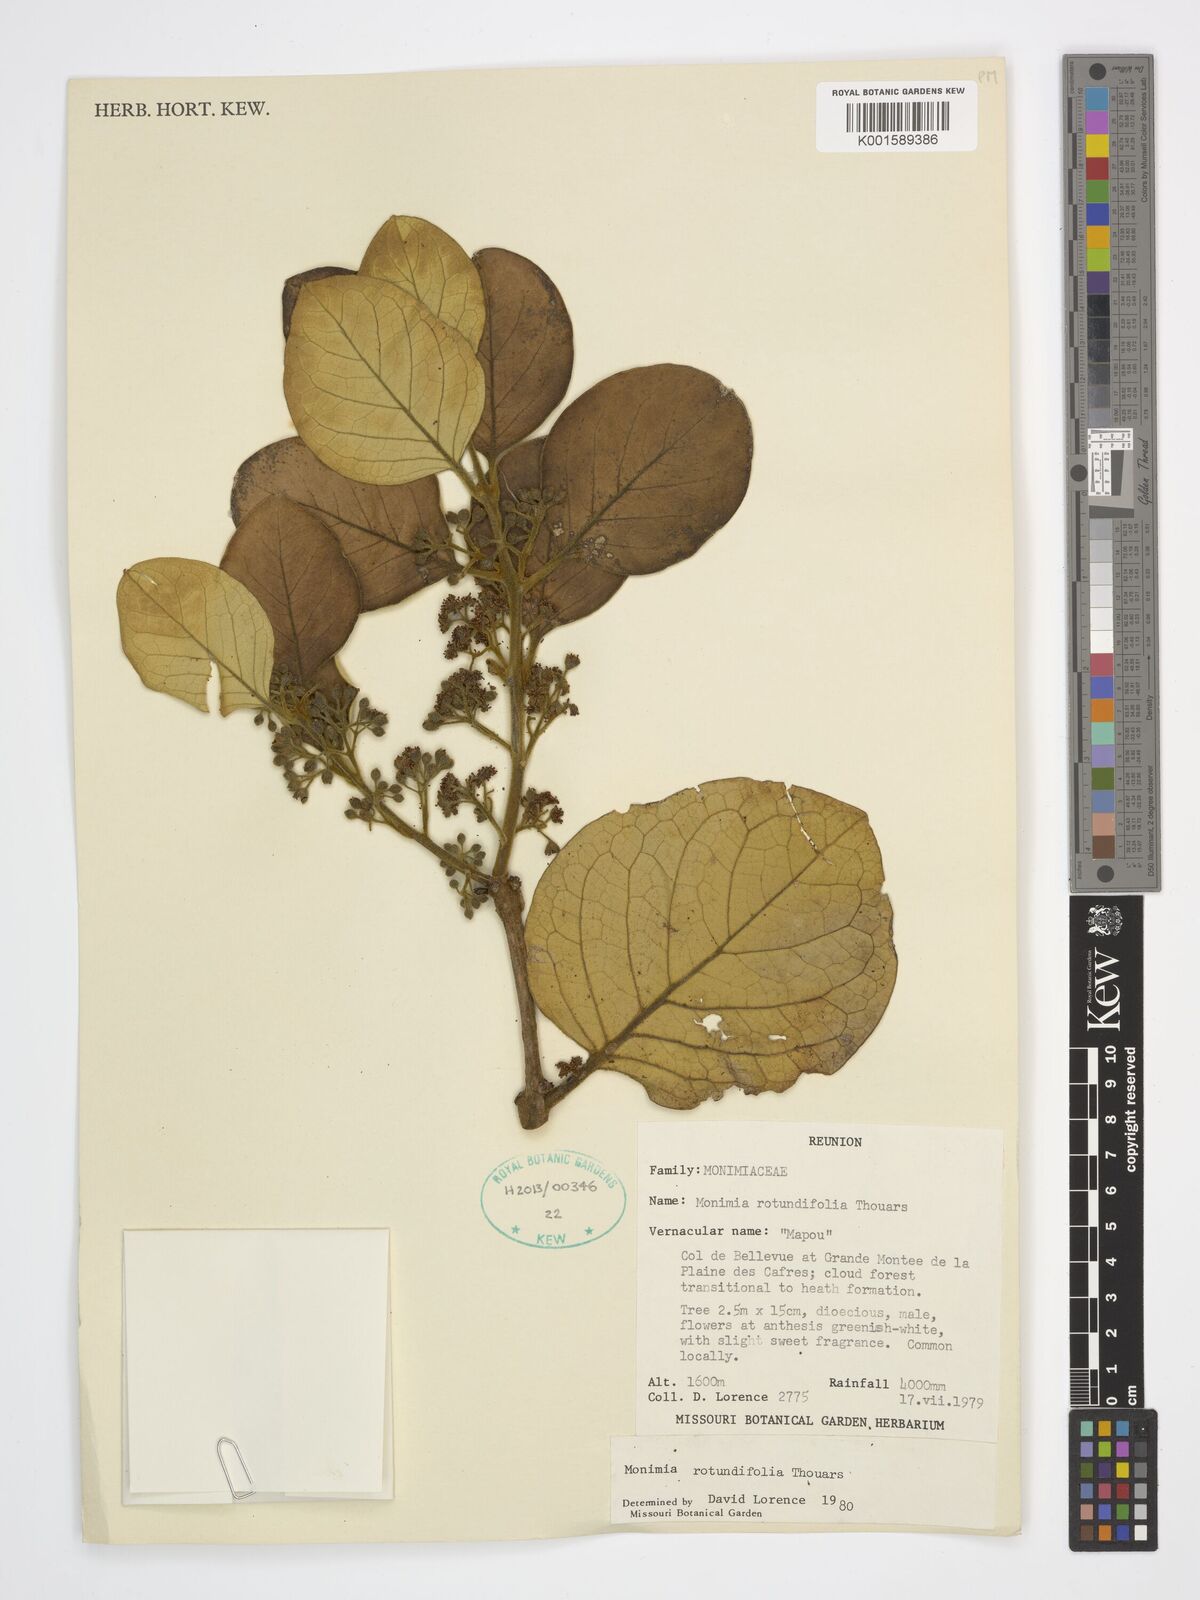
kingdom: Plantae
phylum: Tracheophyta
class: Magnoliopsida
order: Laurales
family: Monimiaceae
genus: Monimia
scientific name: Monimia rotundifolia
